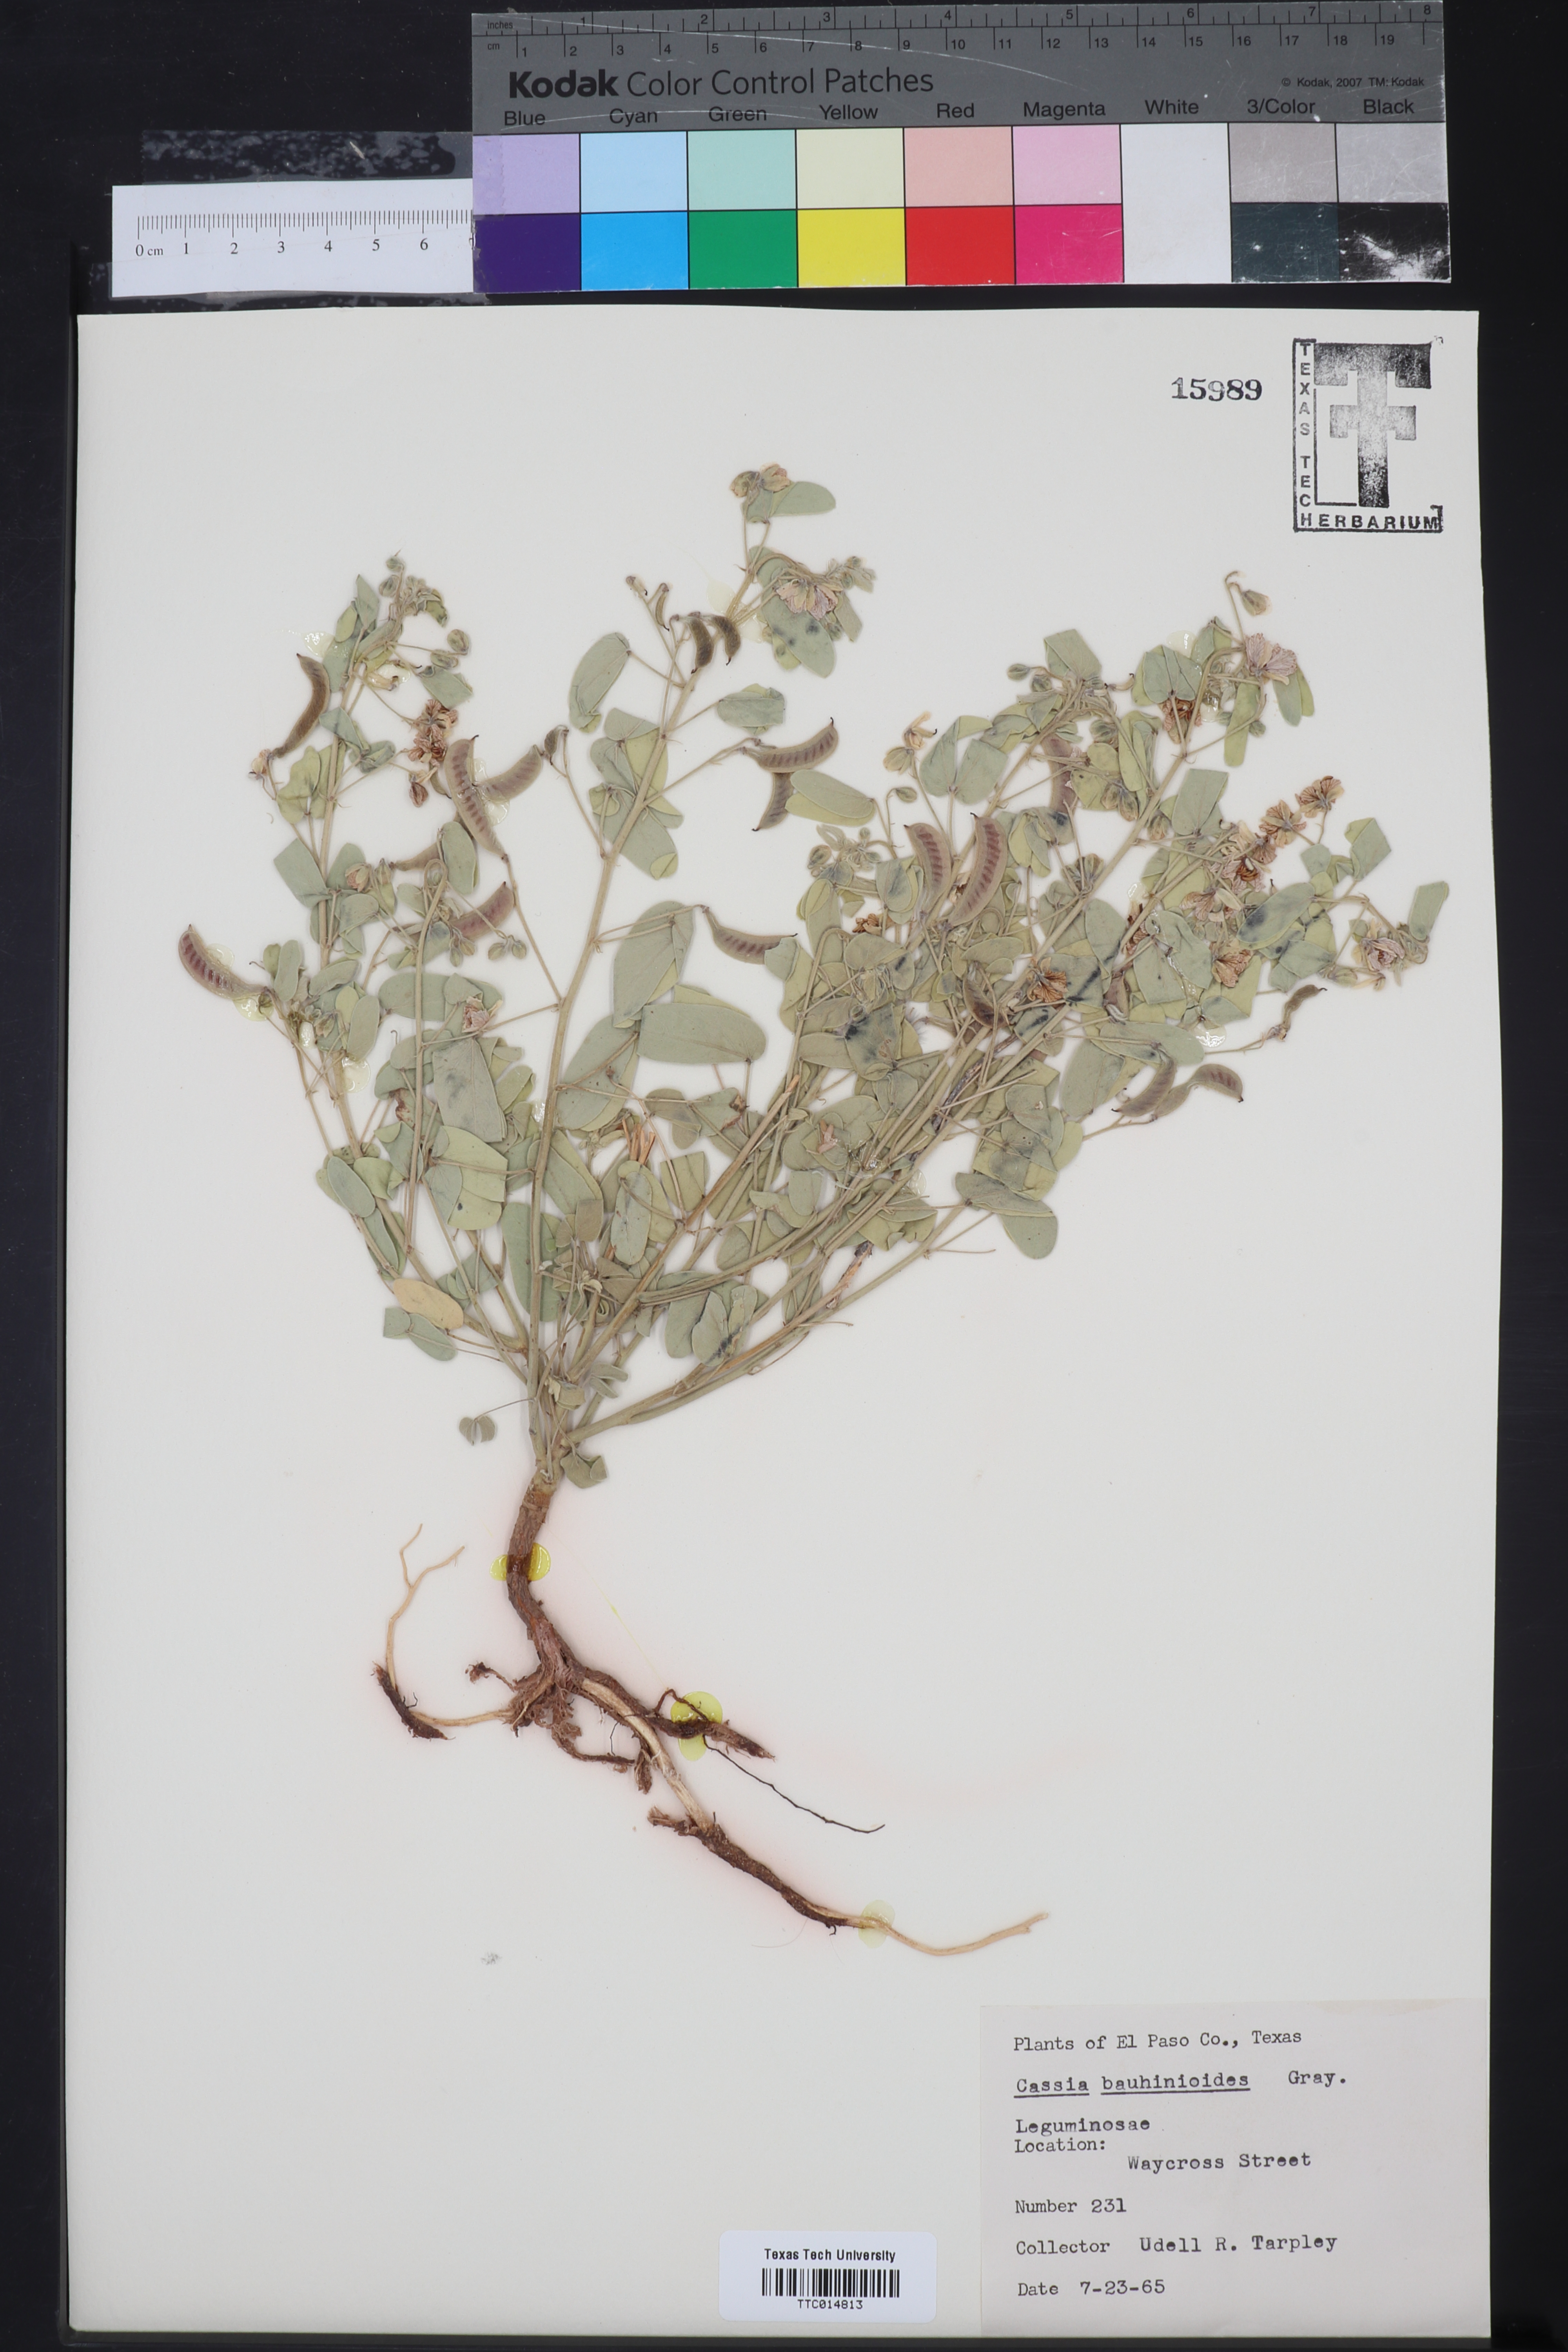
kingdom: Plantae
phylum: Tracheophyta
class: Magnoliopsida
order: Fabales
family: Fabaceae
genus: Senna
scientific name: Senna bauhinioides
